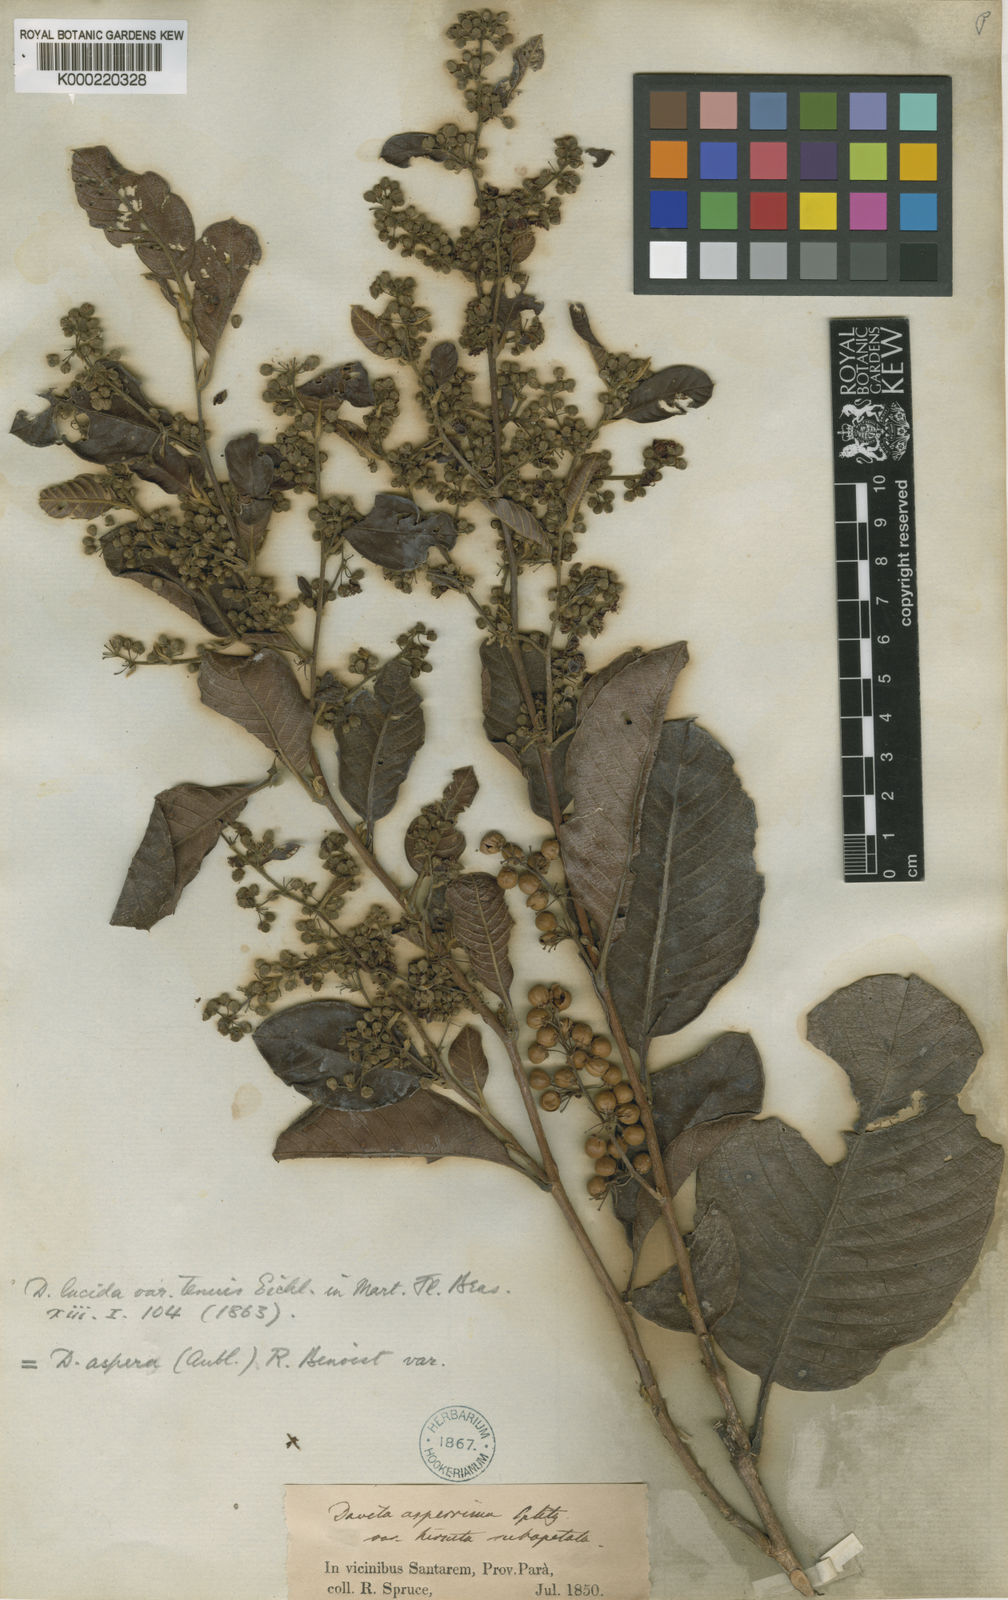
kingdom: Plantae
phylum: Tracheophyta
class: Magnoliopsida
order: Dilleniales
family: Dilleniaceae
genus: Davilla
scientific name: Davilla kunthii
